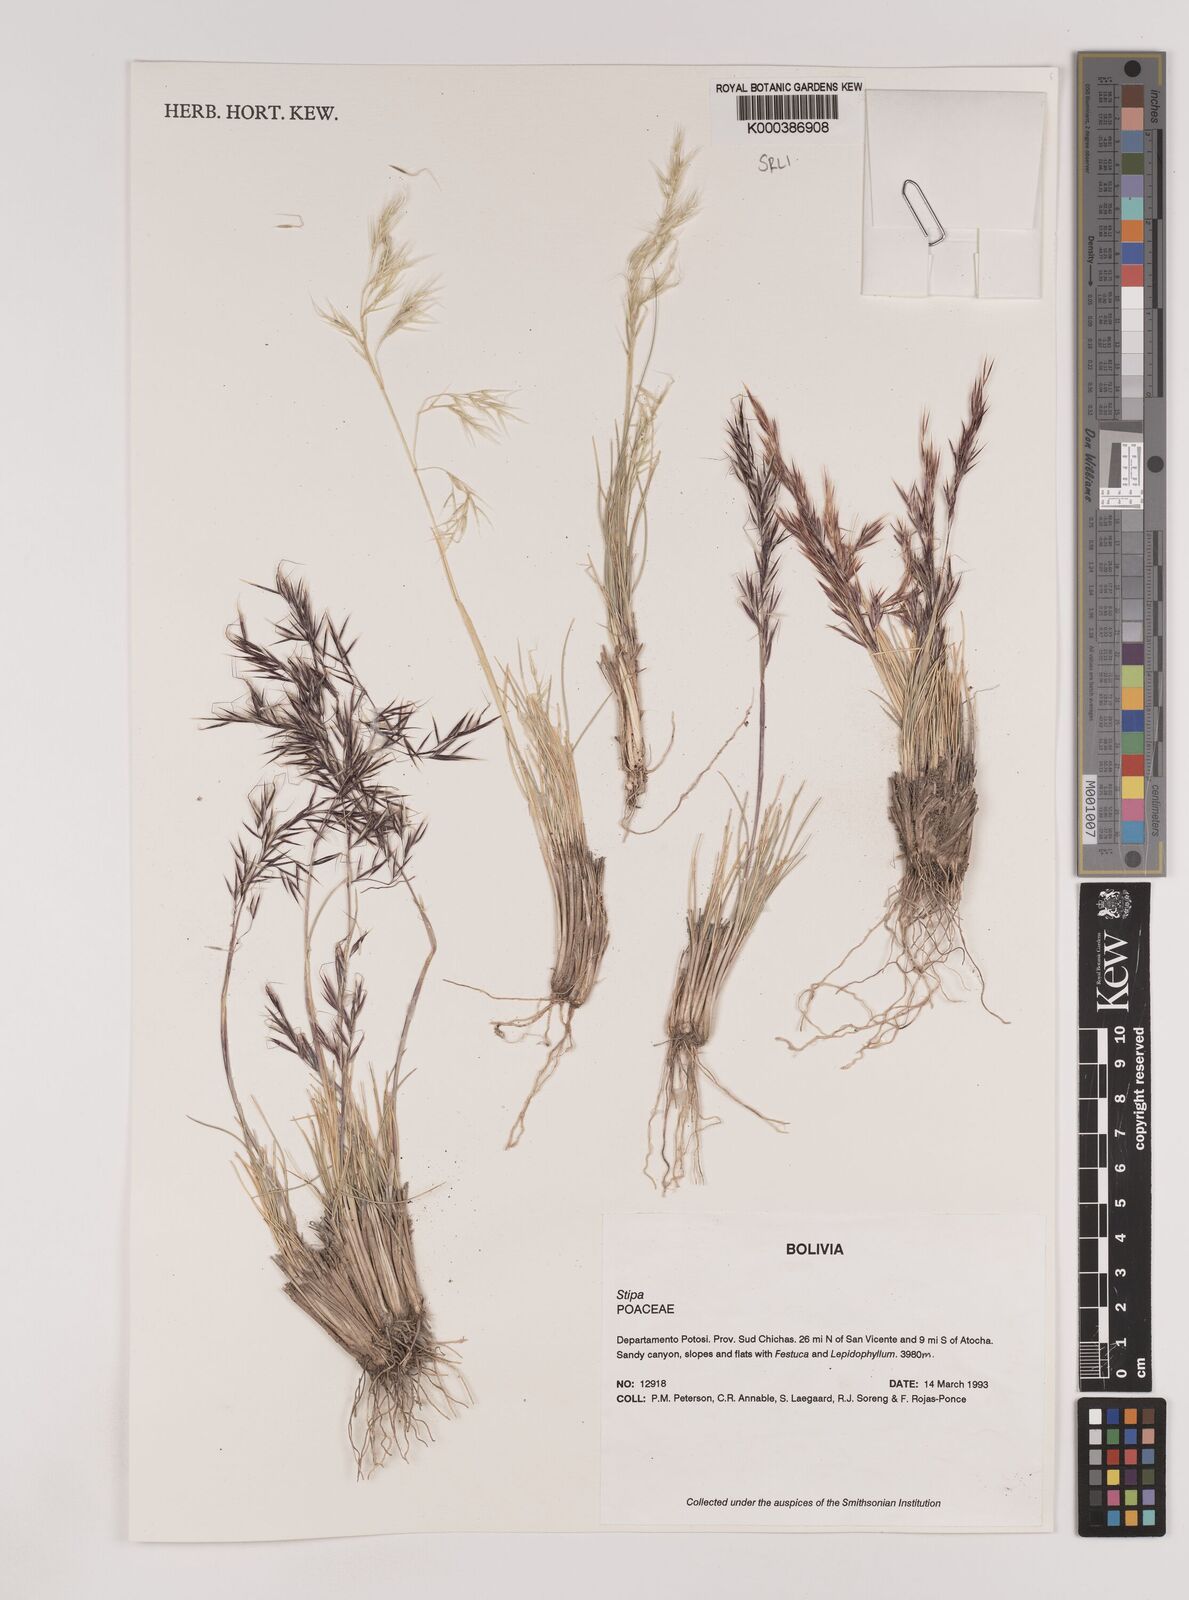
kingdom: Plantae
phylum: Tracheophyta
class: Liliopsida
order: Poales
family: Poaceae
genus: Nassella
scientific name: Nassella nardoides
